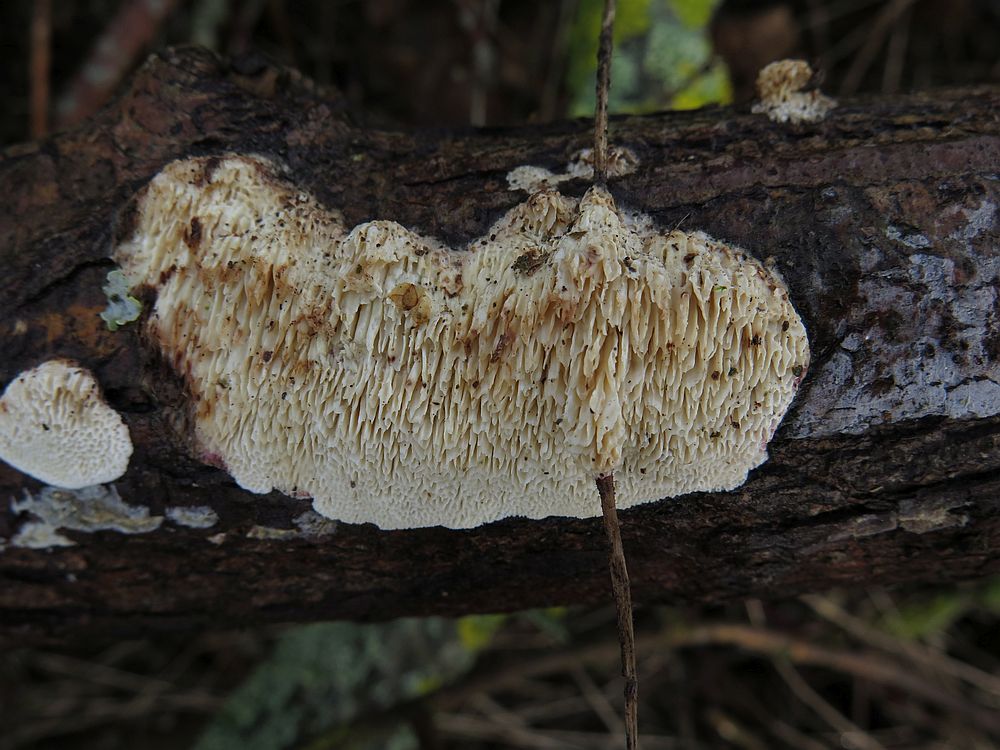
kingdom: Fungi
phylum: Basidiomycota
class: Agaricomycetes
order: Hymenochaetales
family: Schizoporaceae
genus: Schizopora
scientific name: Schizopora paradoxa
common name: hvid tandsvamp
